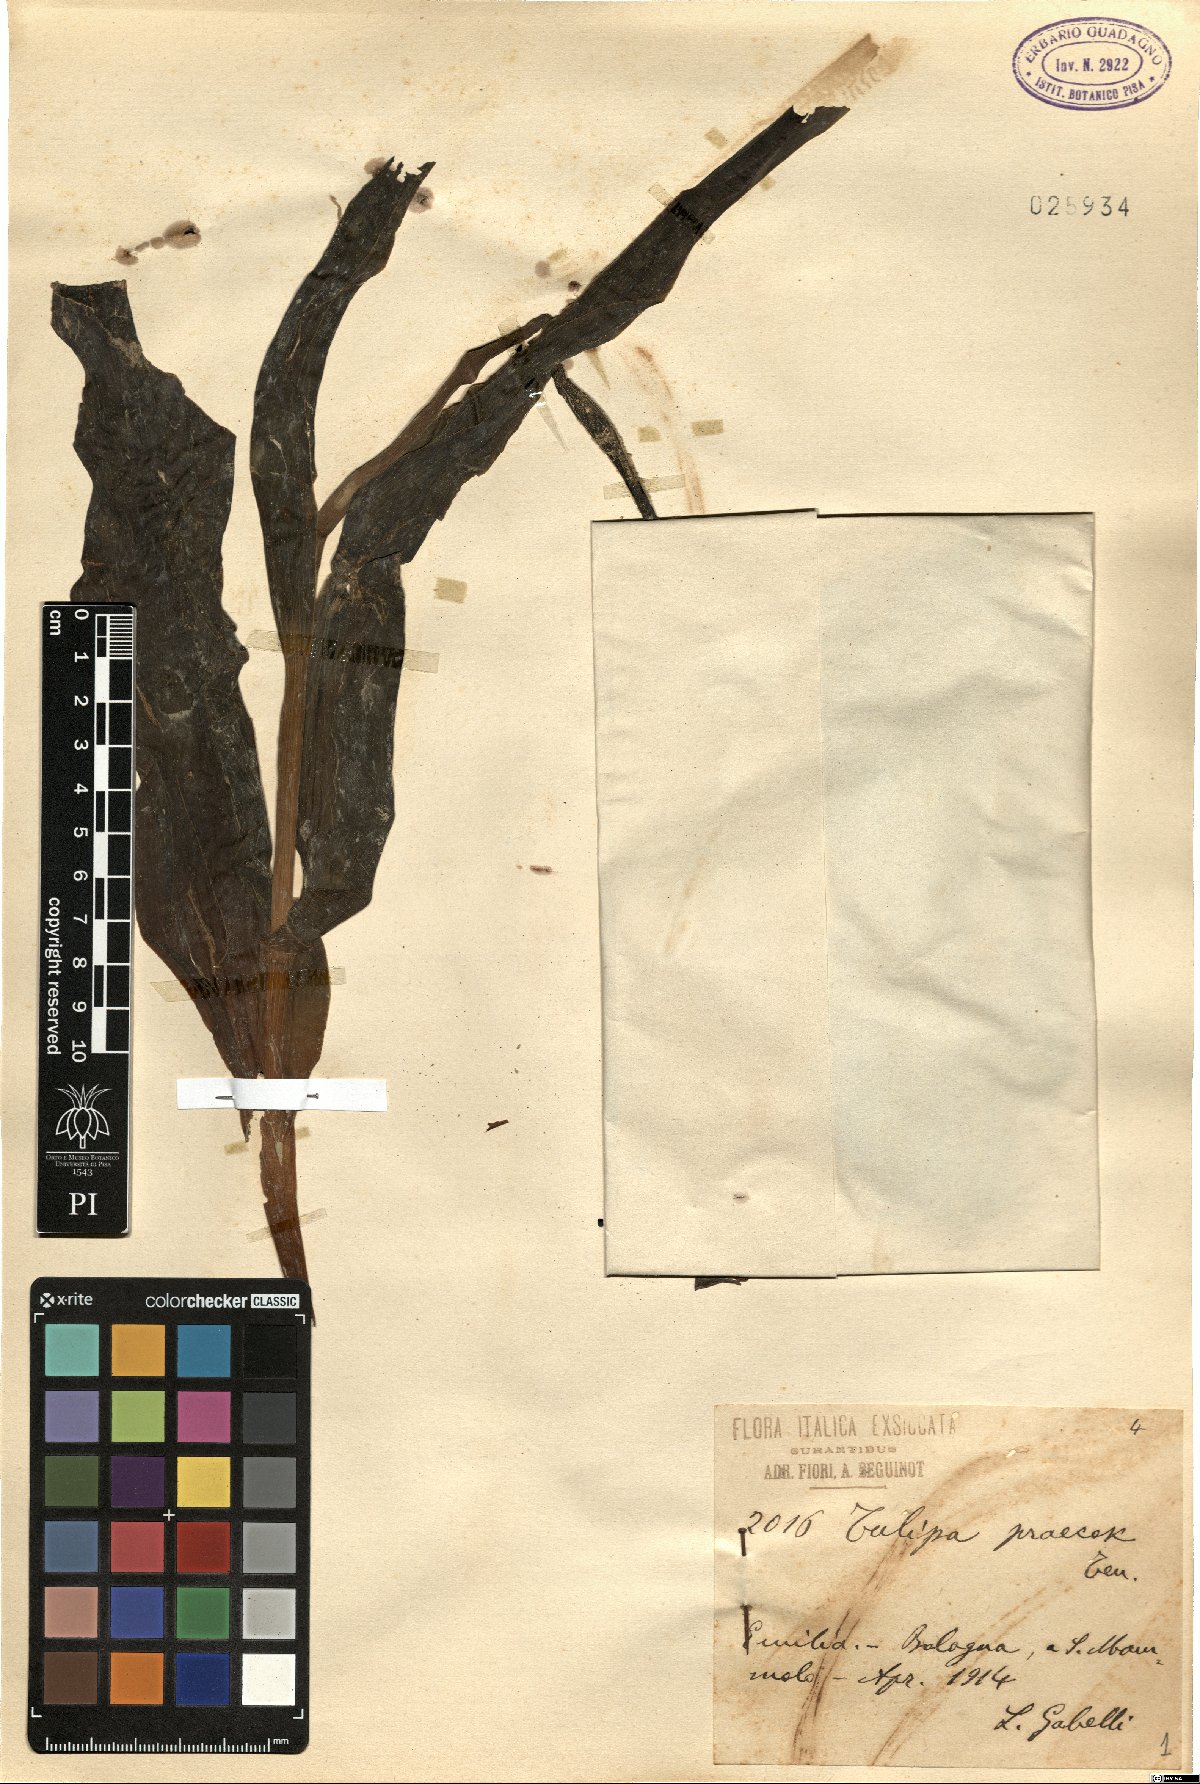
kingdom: Plantae
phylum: Tracheophyta
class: Liliopsida
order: Liliales
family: Liliaceae
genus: Tulipa
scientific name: Tulipa agenensis
